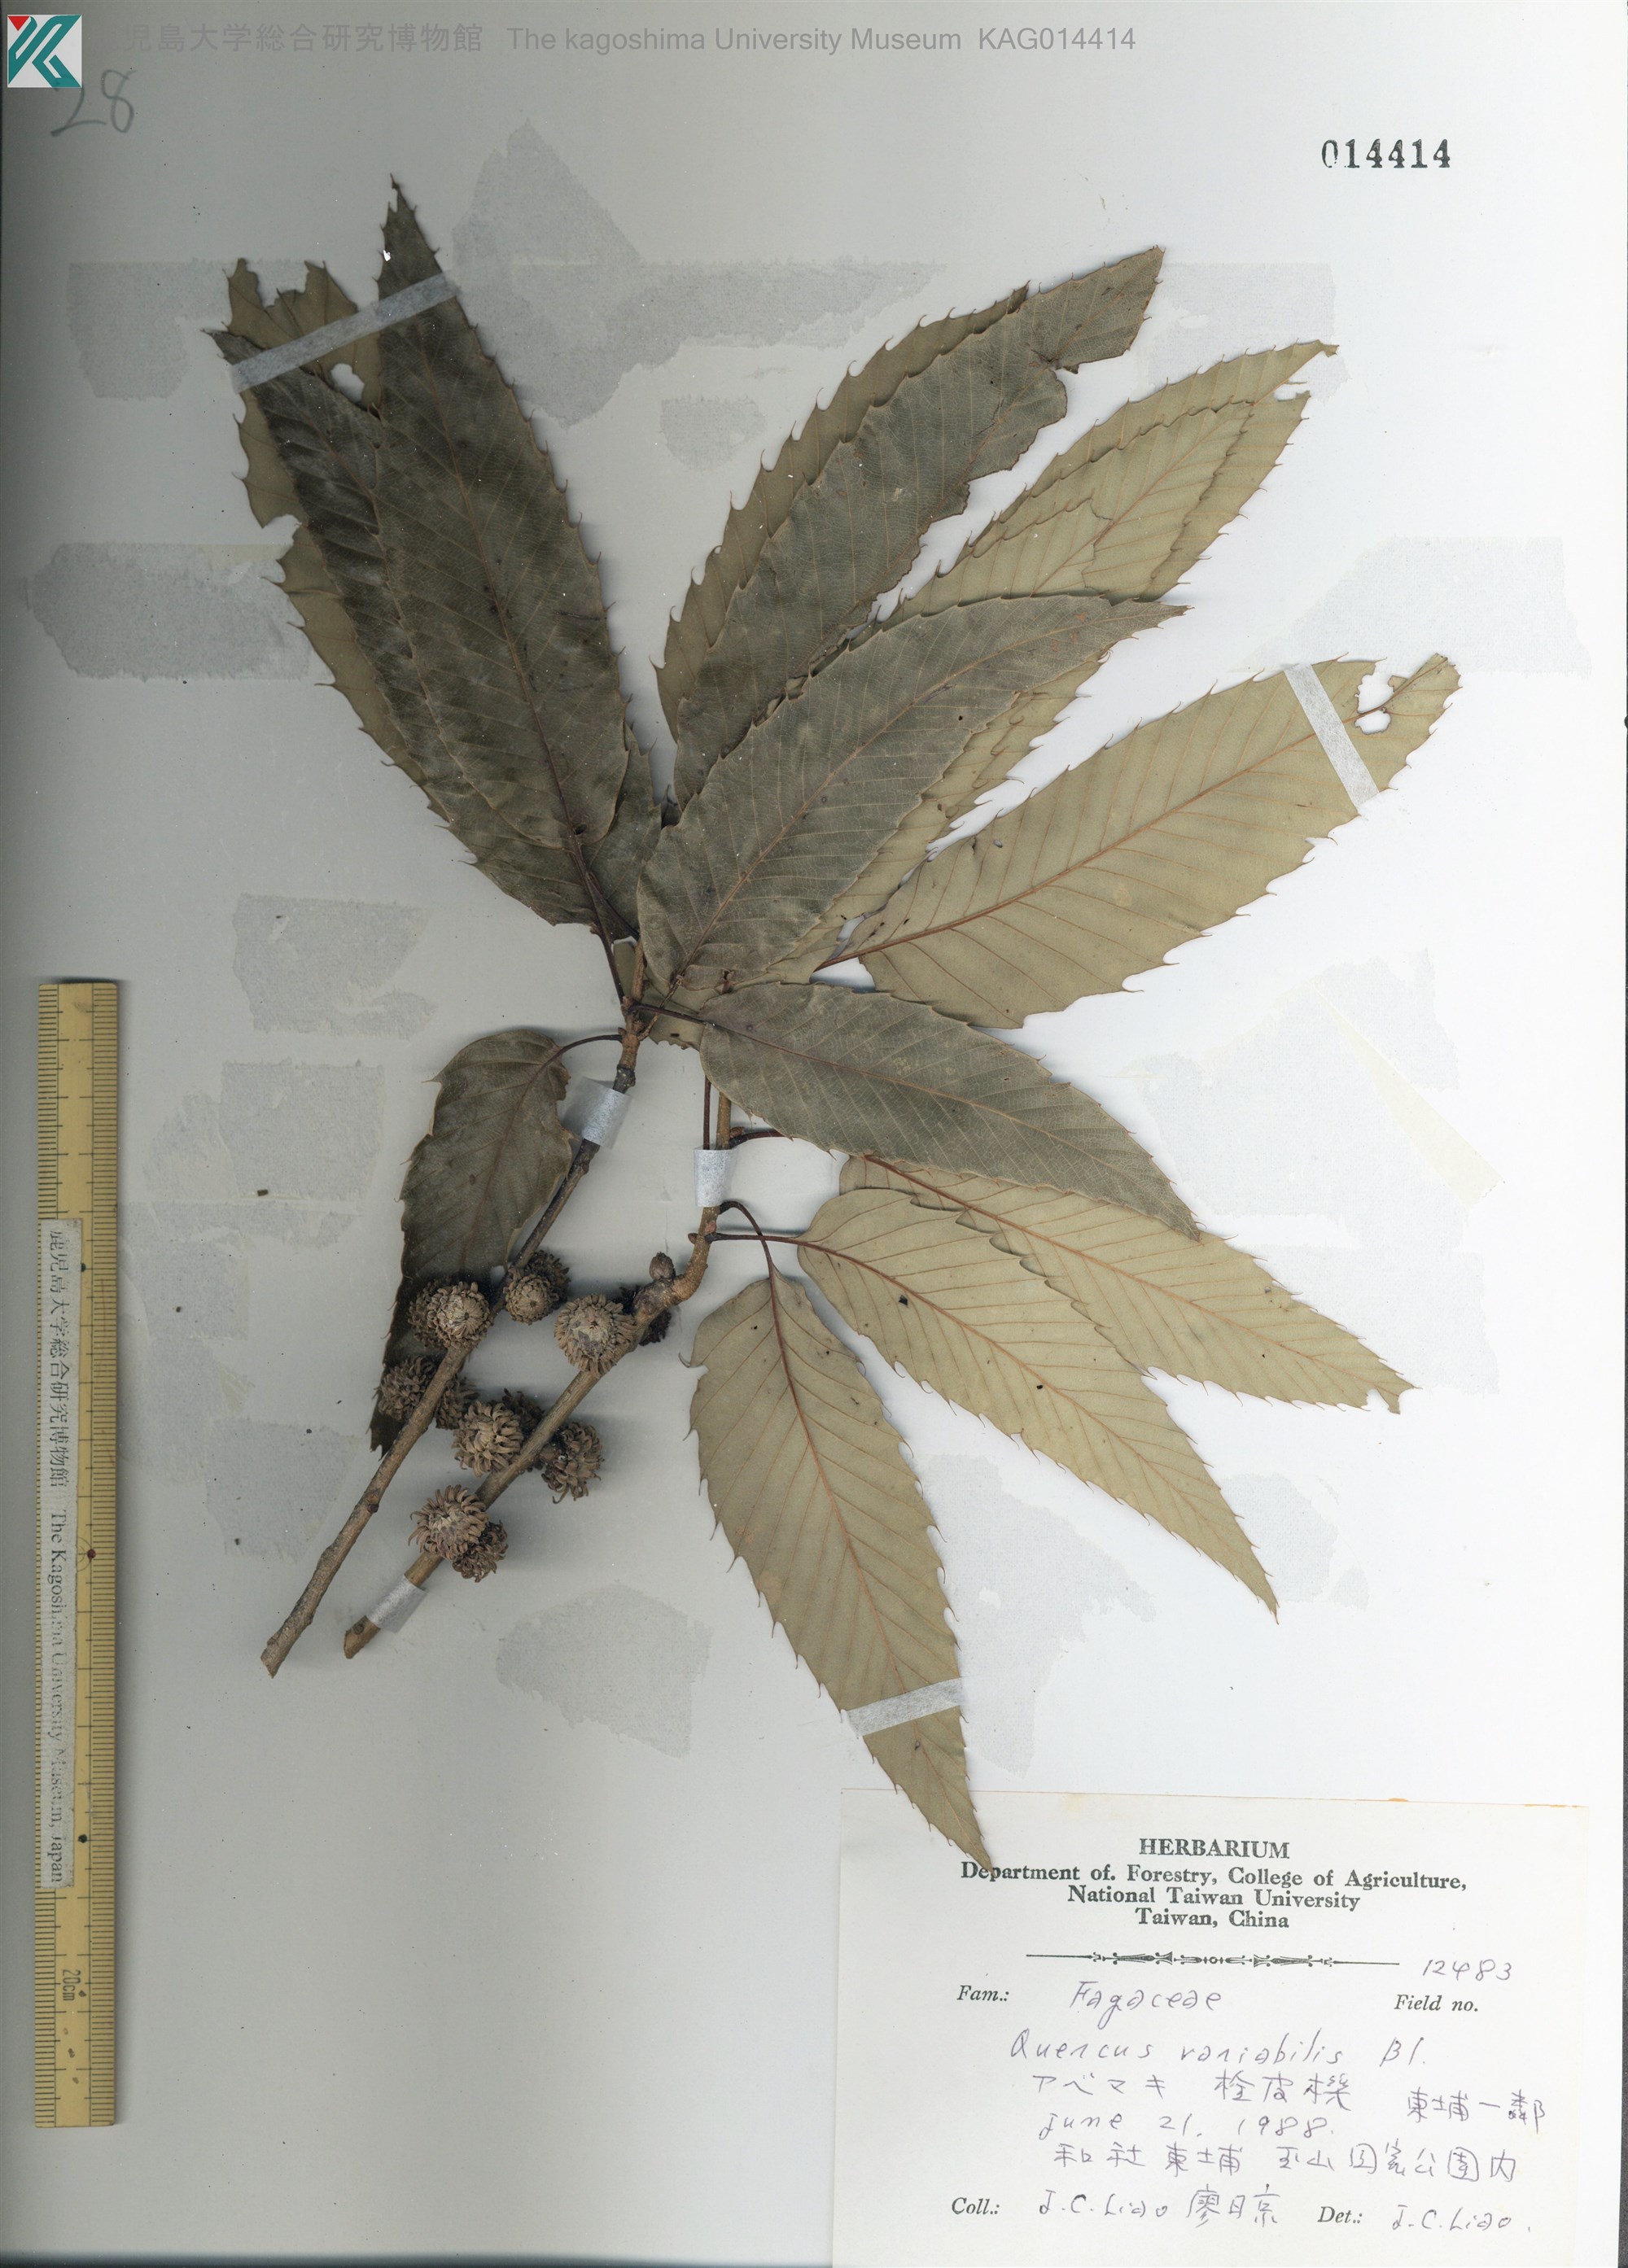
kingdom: Plantae
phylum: Tracheophyta
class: Magnoliopsida
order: Fagales
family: Fagaceae
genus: Quercus
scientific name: Quercus variabilis
